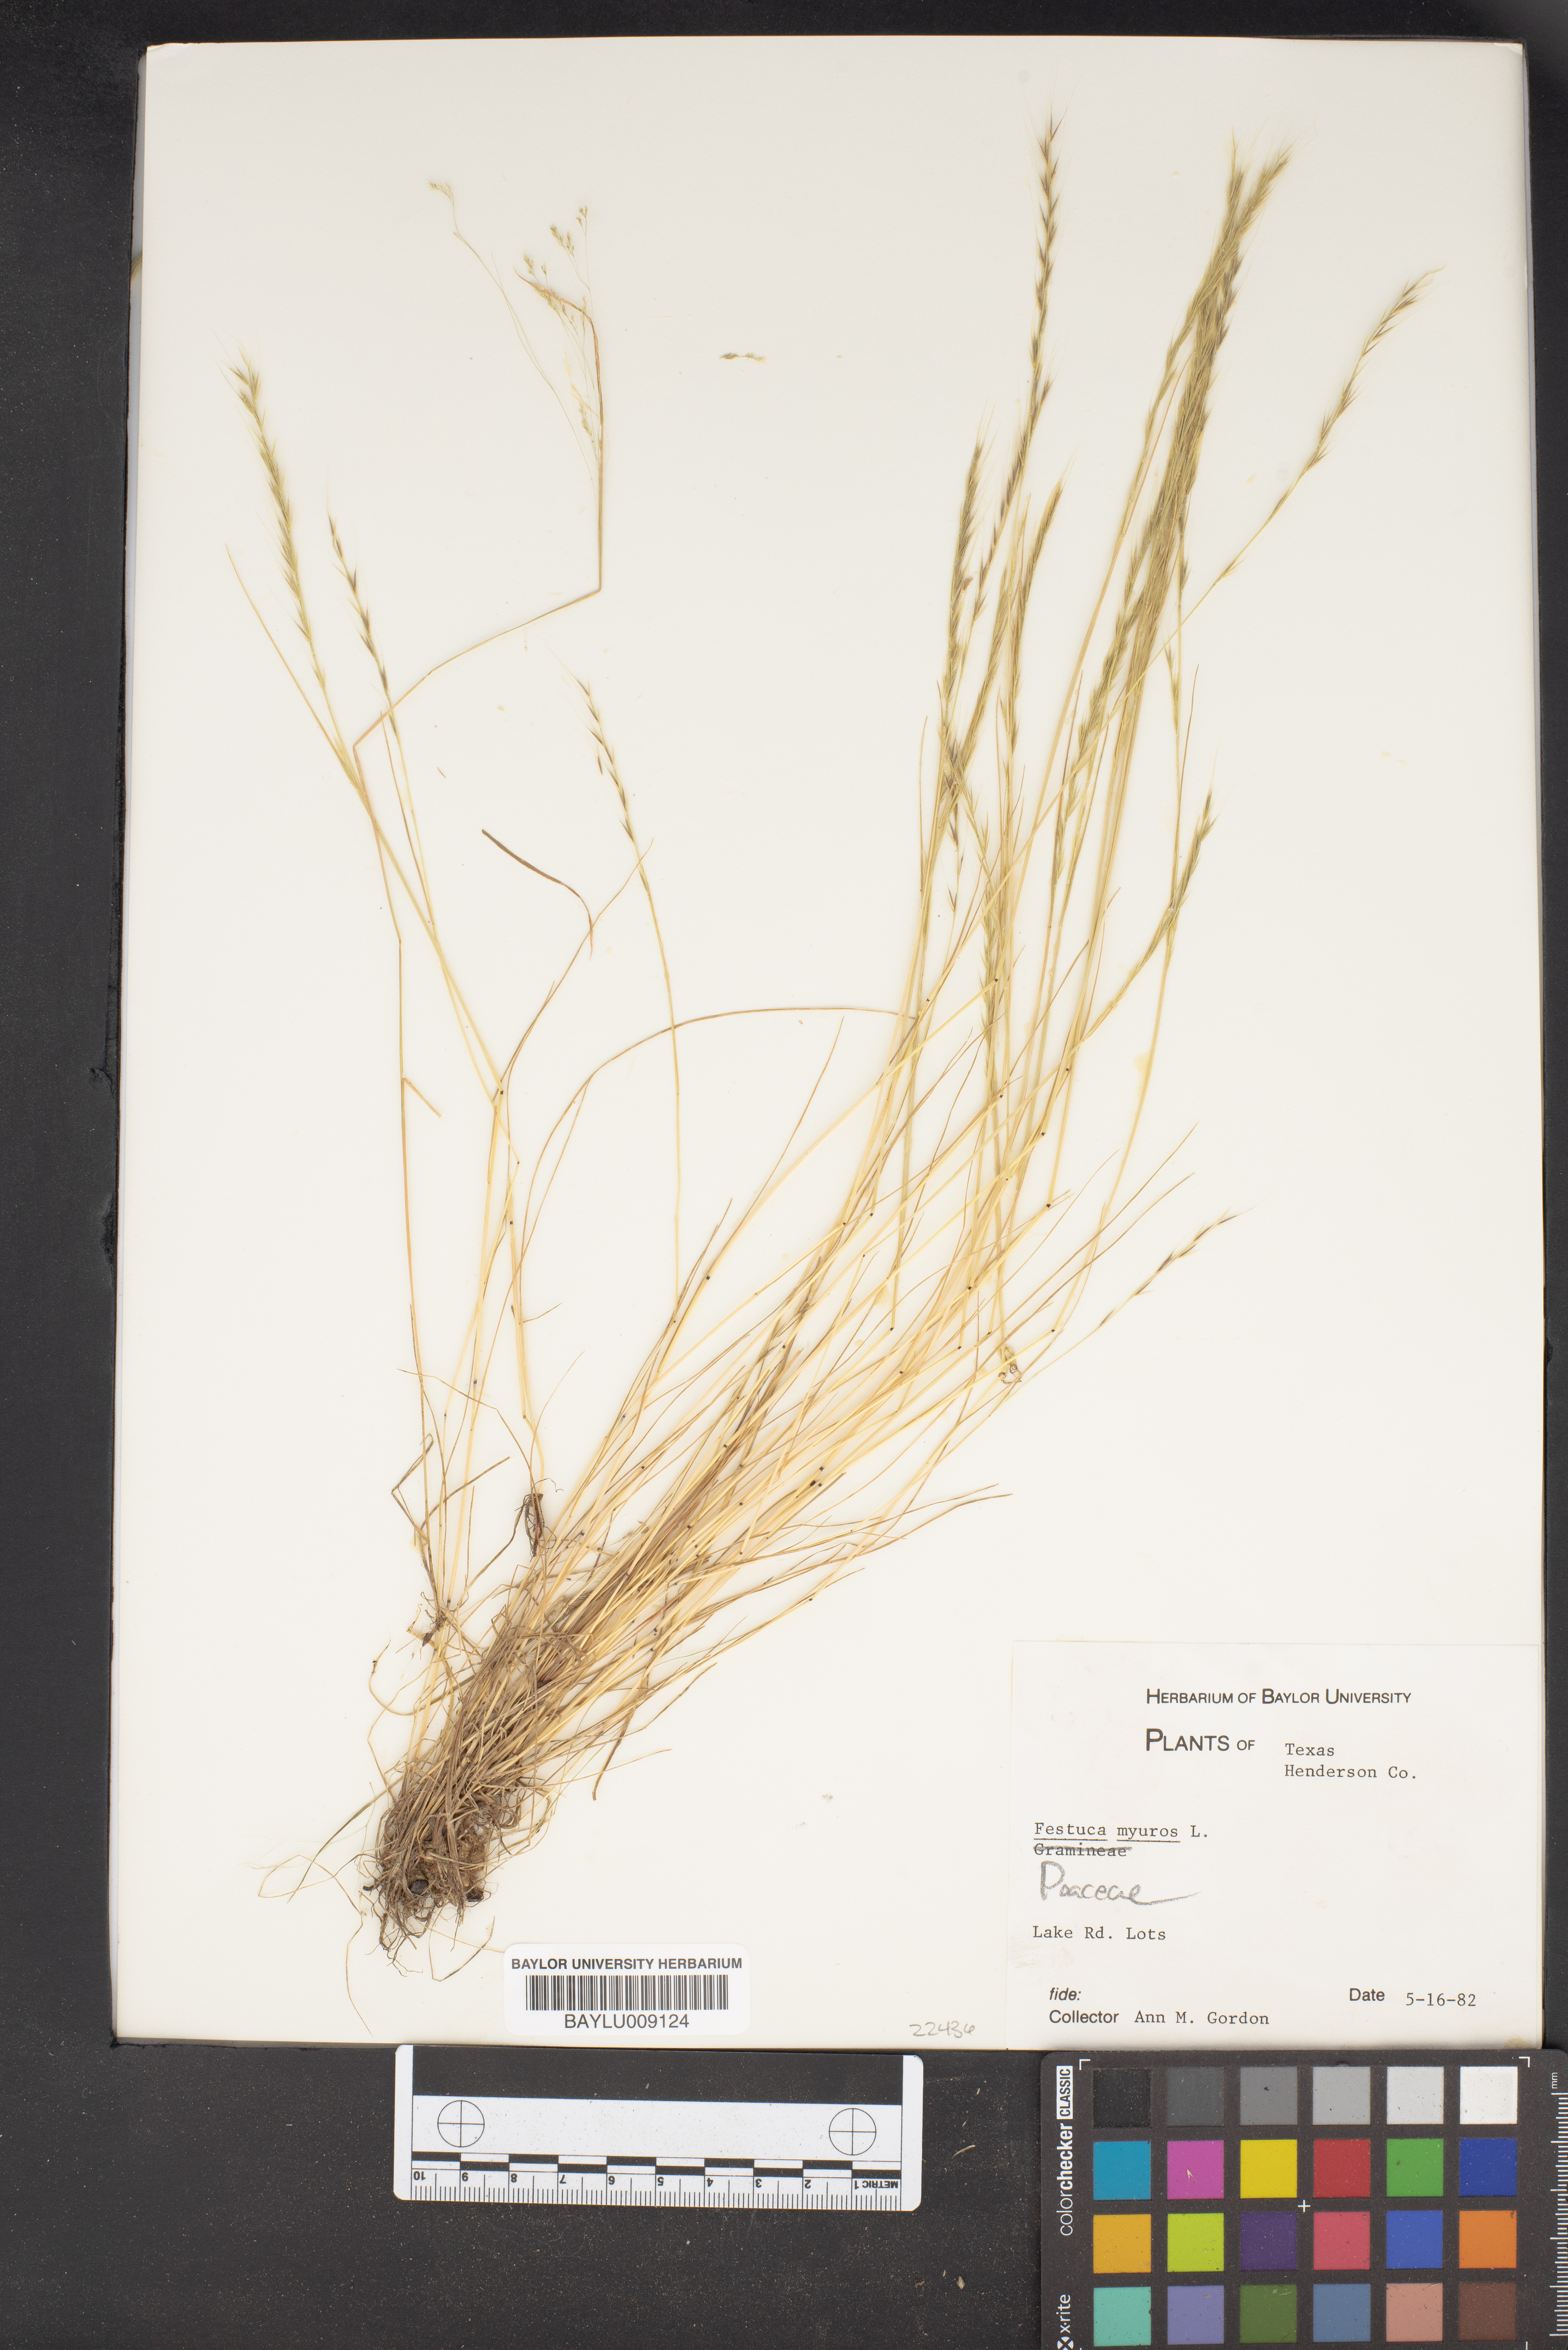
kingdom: Plantae
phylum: Tracheophyta
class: Liliopsida
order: Poales
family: Poaceae
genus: Festuca
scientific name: Festuca myuros
